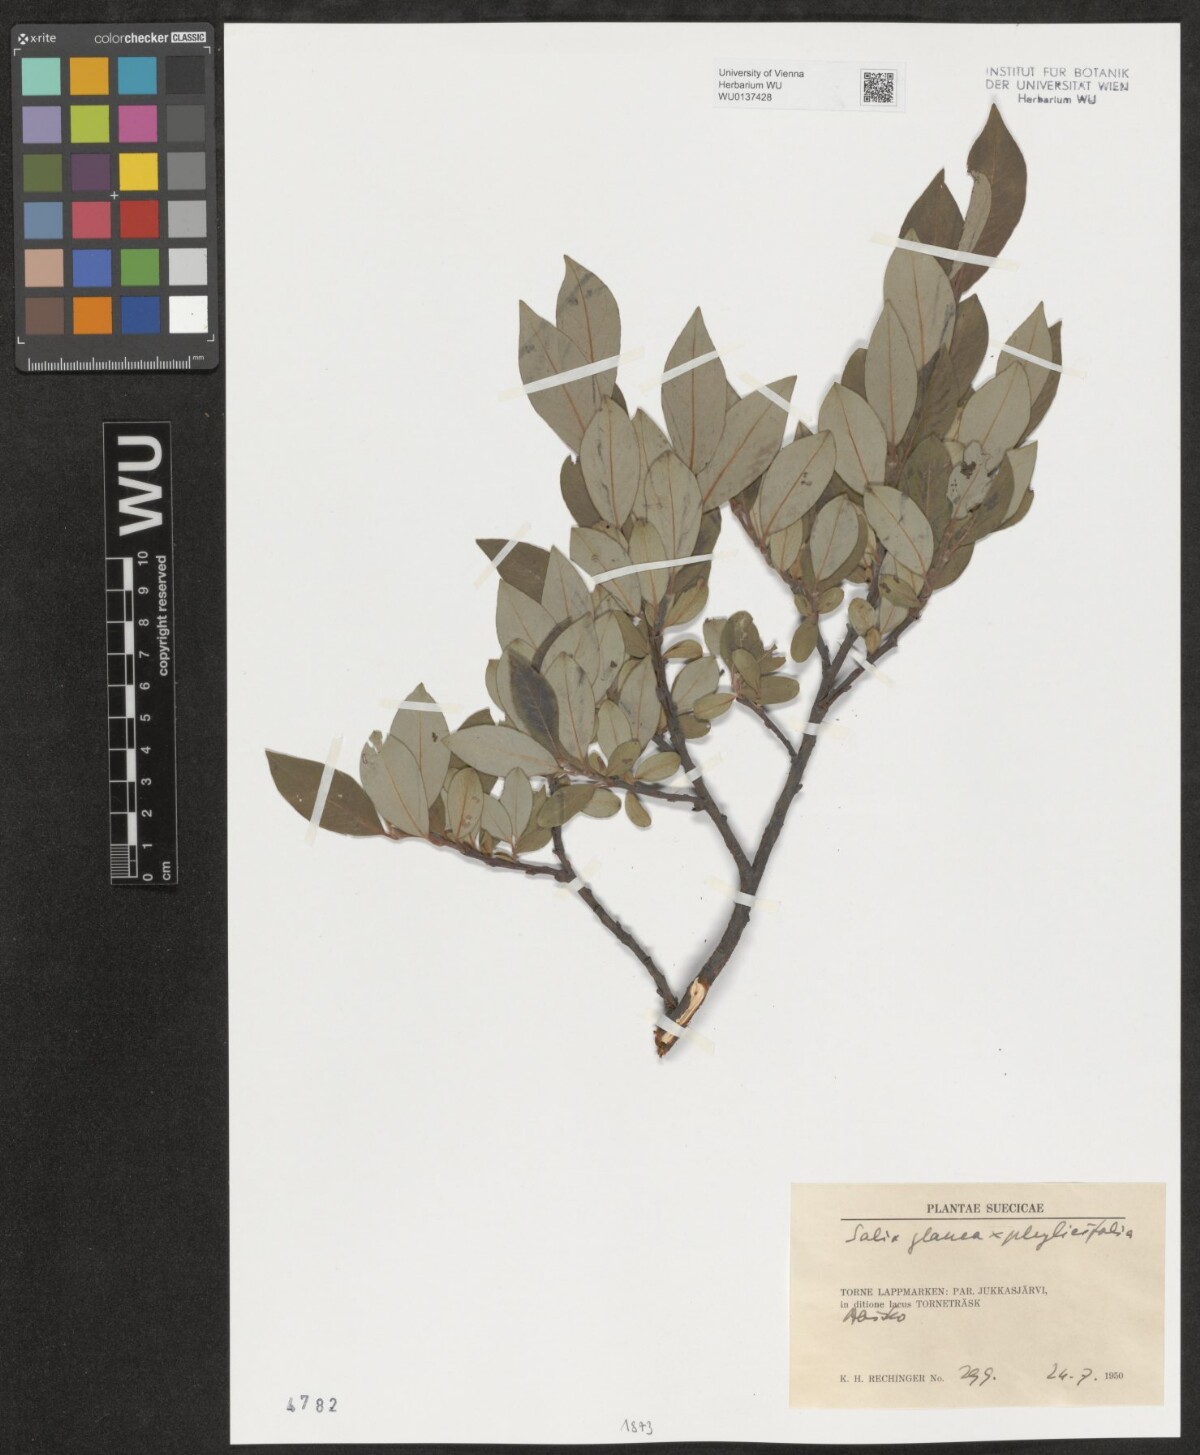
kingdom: Plantae
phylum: Tracheophyta
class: Magnoliopsida
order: Malpighiales
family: Salicaceae
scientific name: Salicaceae
